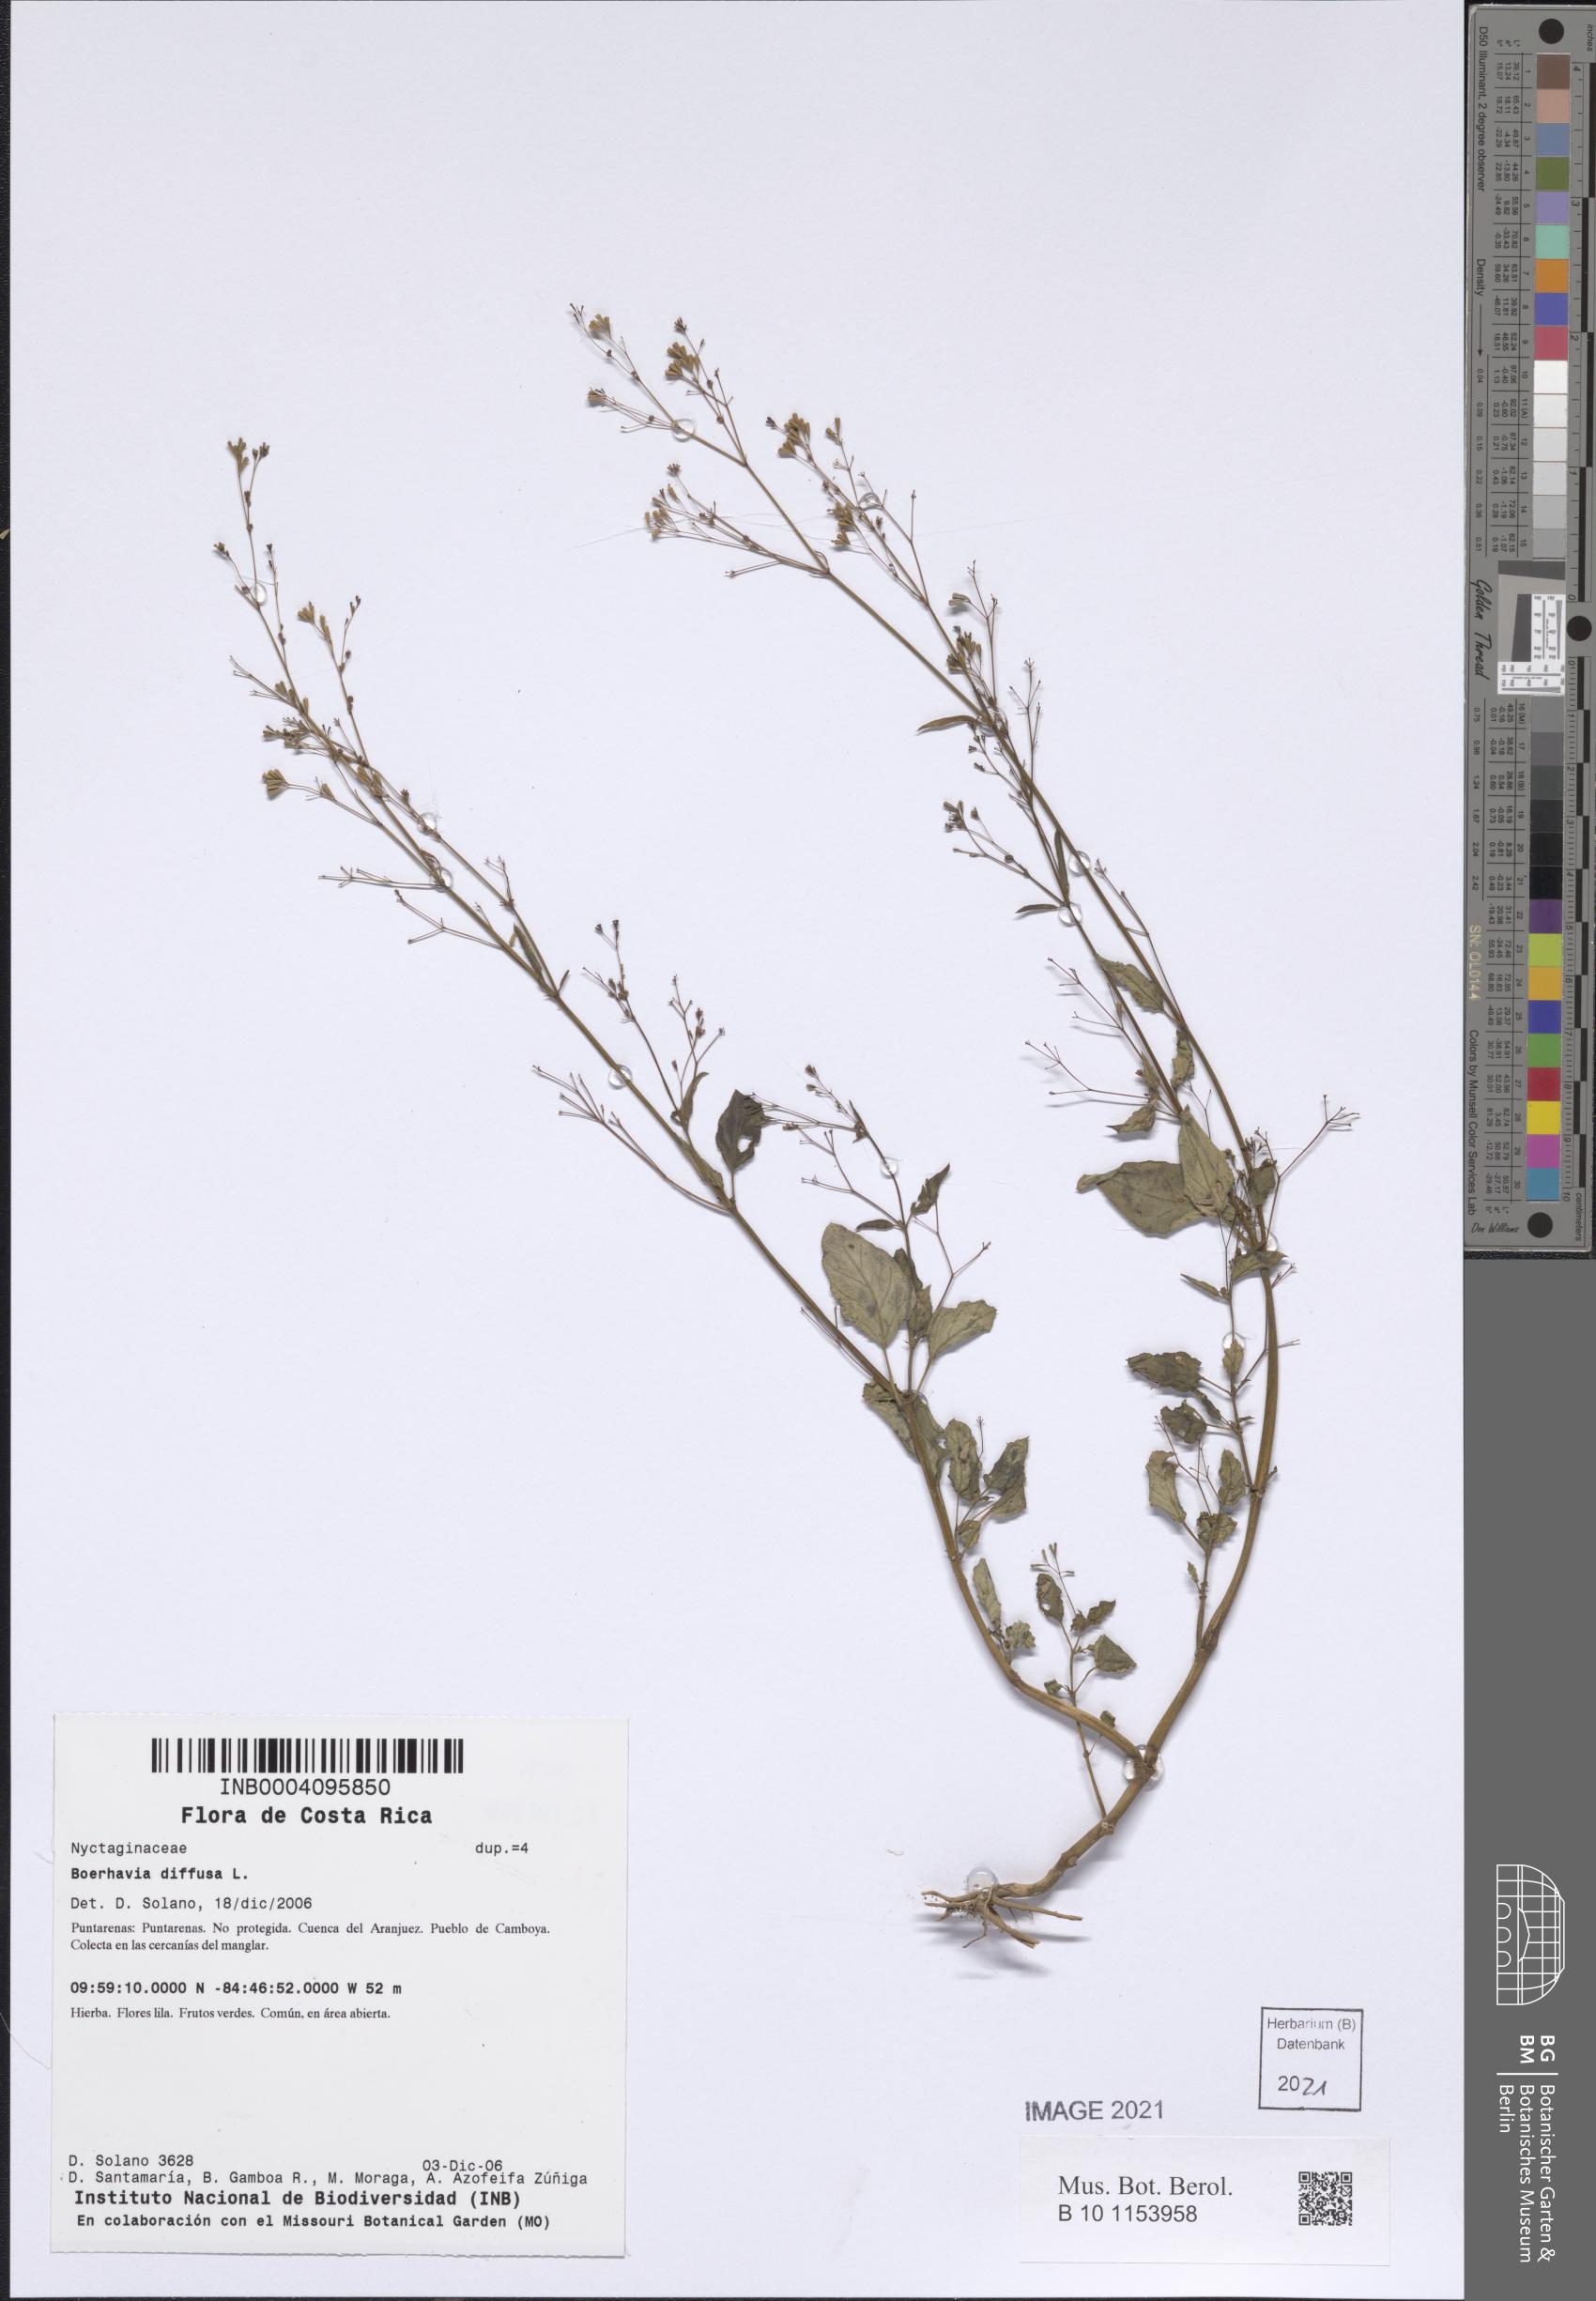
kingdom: Plantae
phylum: Tracheophyta
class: Magnoliopsida
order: Caryophyllales
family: Nyctaginaceae
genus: Boerhavia
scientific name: Boerhavia erecta
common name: Erect spiderling
